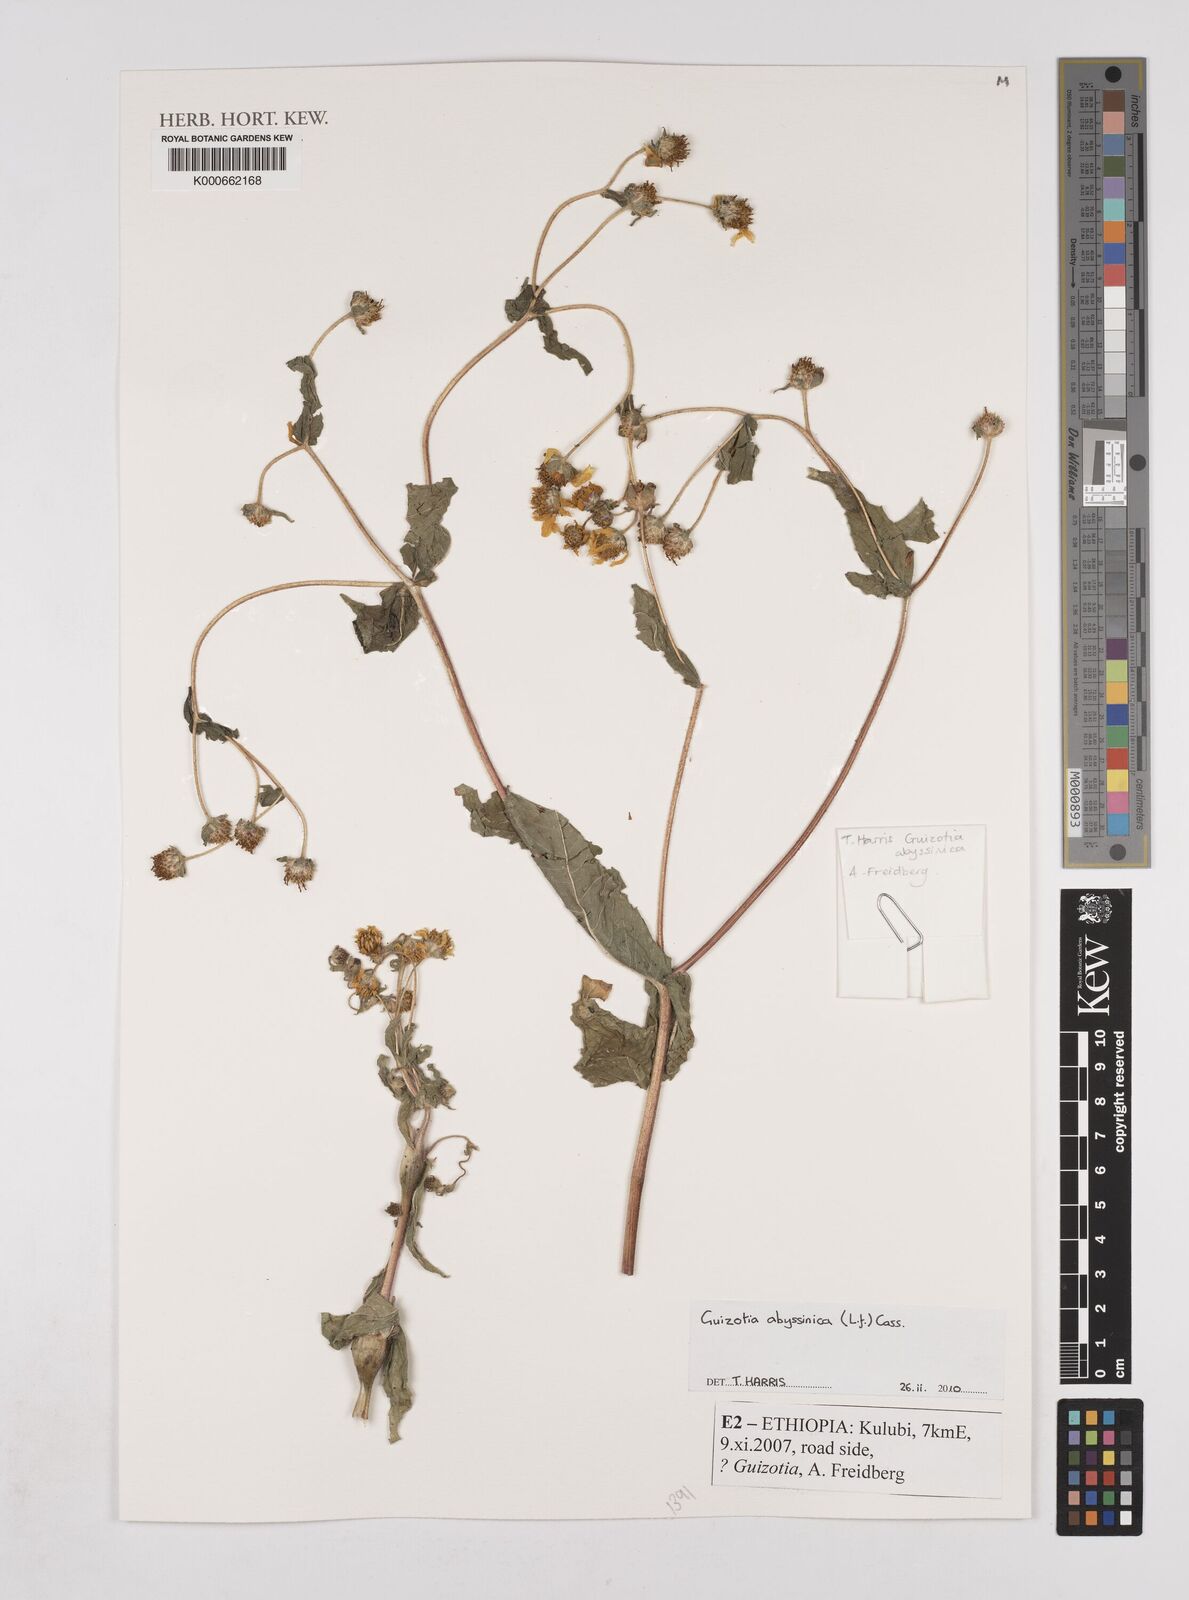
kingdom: Plantae
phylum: Tracheophyta
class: Magnoliopsida
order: Asterales
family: Asteraceae
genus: Guizotia
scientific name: Guizotia abyssinica
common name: Niger
